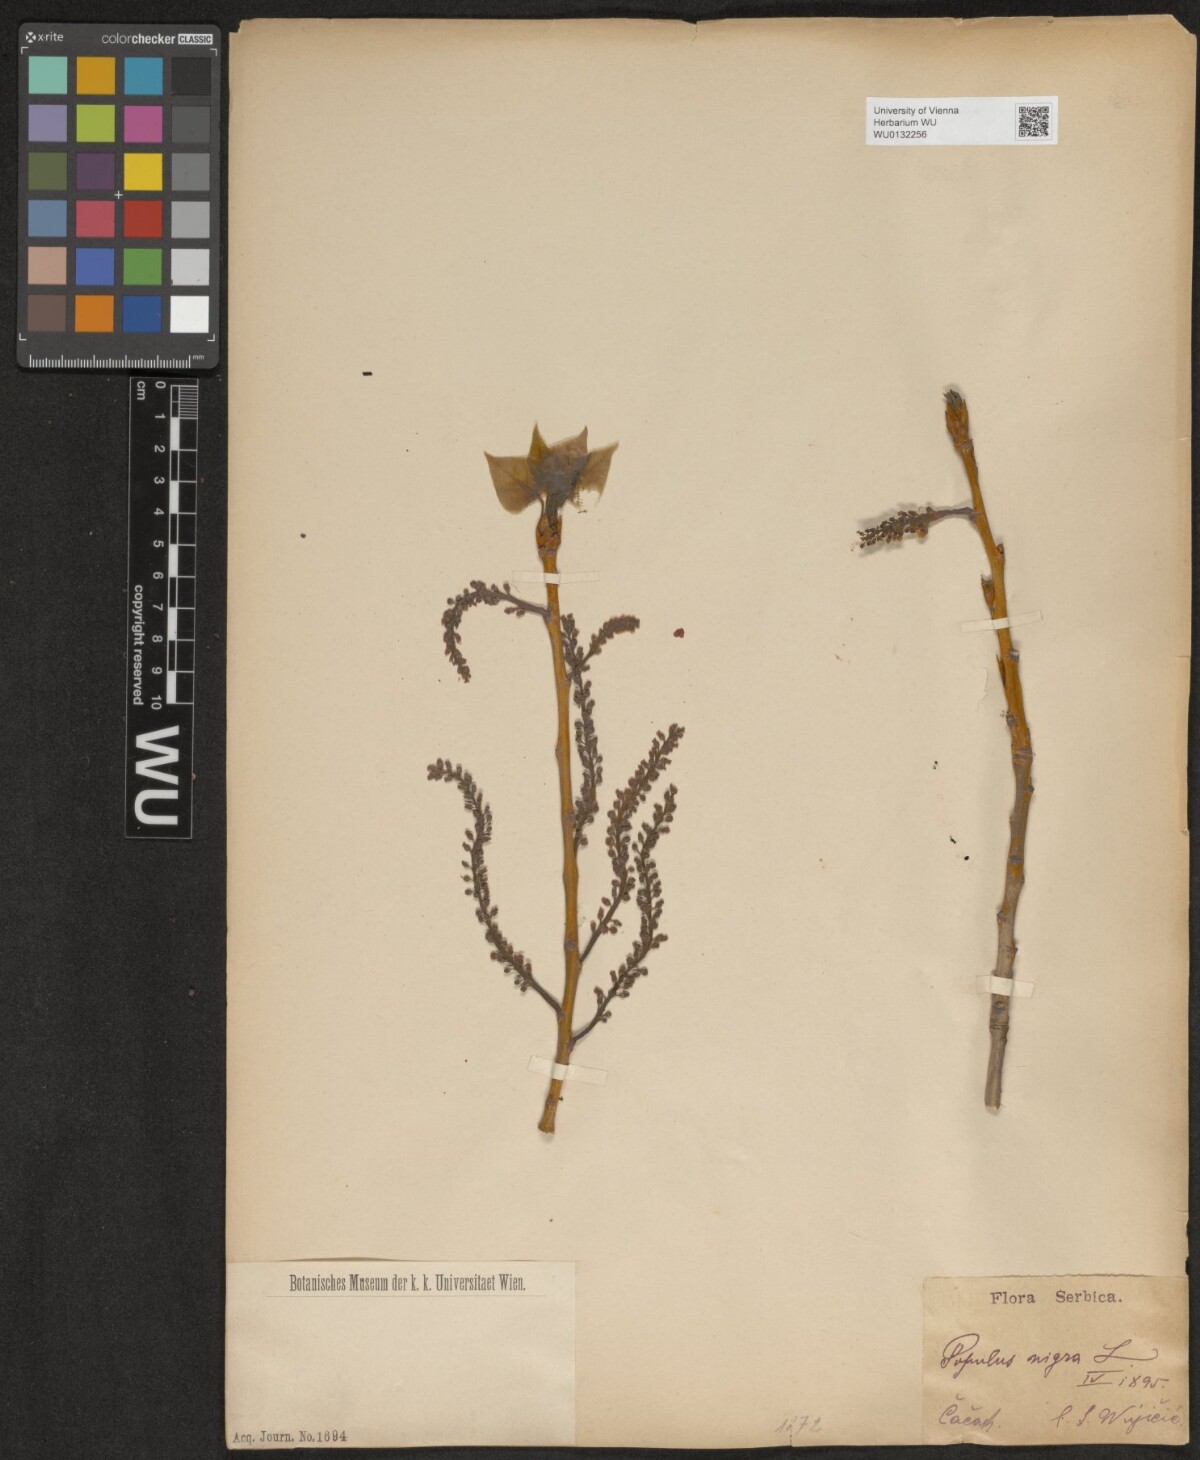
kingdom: Plantae
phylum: Tracheophyta
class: Magnoliopsida
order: Malpighiales
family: Salicaceae
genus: Populus
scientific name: Populus nigra
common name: Black poplar
